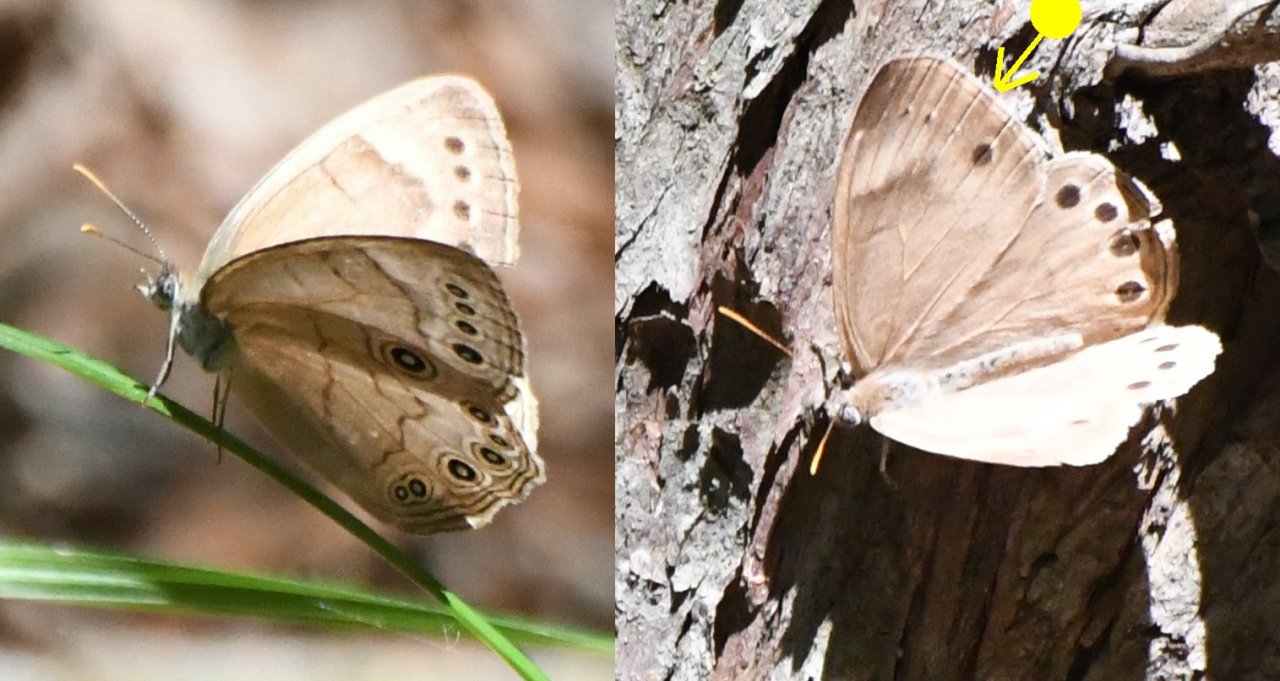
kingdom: Animalia
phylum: Arthropoda
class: Insecta
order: Lepidoptera
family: Nymphalidae
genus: Lethe
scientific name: Lethe eurydice
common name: Appalachian Eyed Brown
